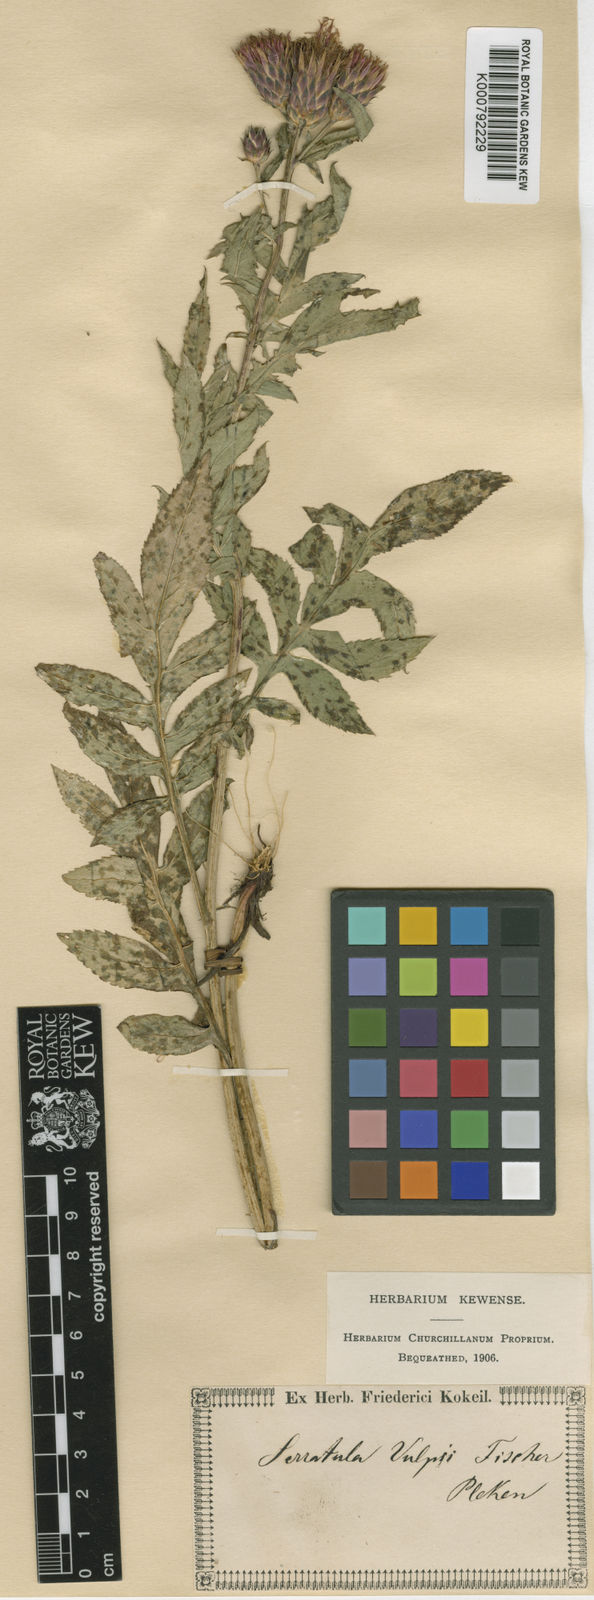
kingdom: Plantae
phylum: Tracheophyta
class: Magnoliopsida
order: Asterales
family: Asteraceae
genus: Serratula
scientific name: Serratula
